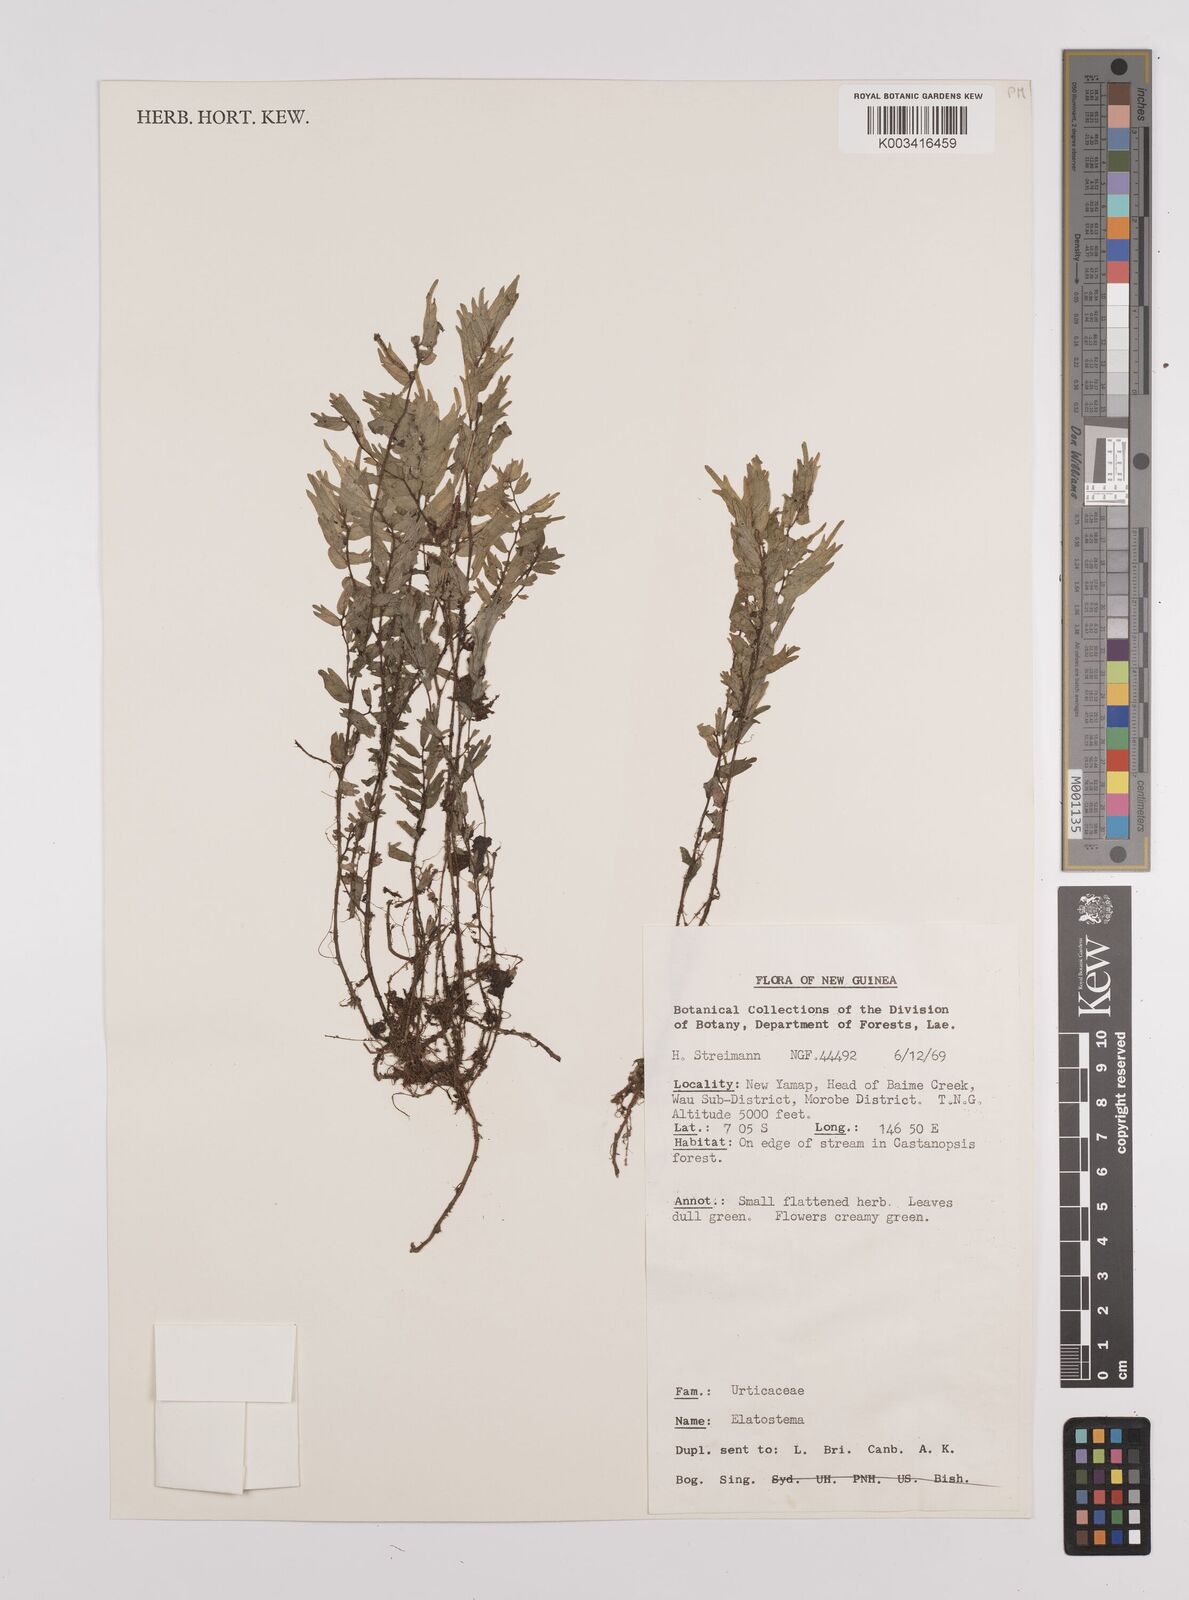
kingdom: Plantae
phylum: Tracheophyta
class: Magnoliopsida
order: Rosales
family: Urticaceae
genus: Elatostema
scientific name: Elatostema
